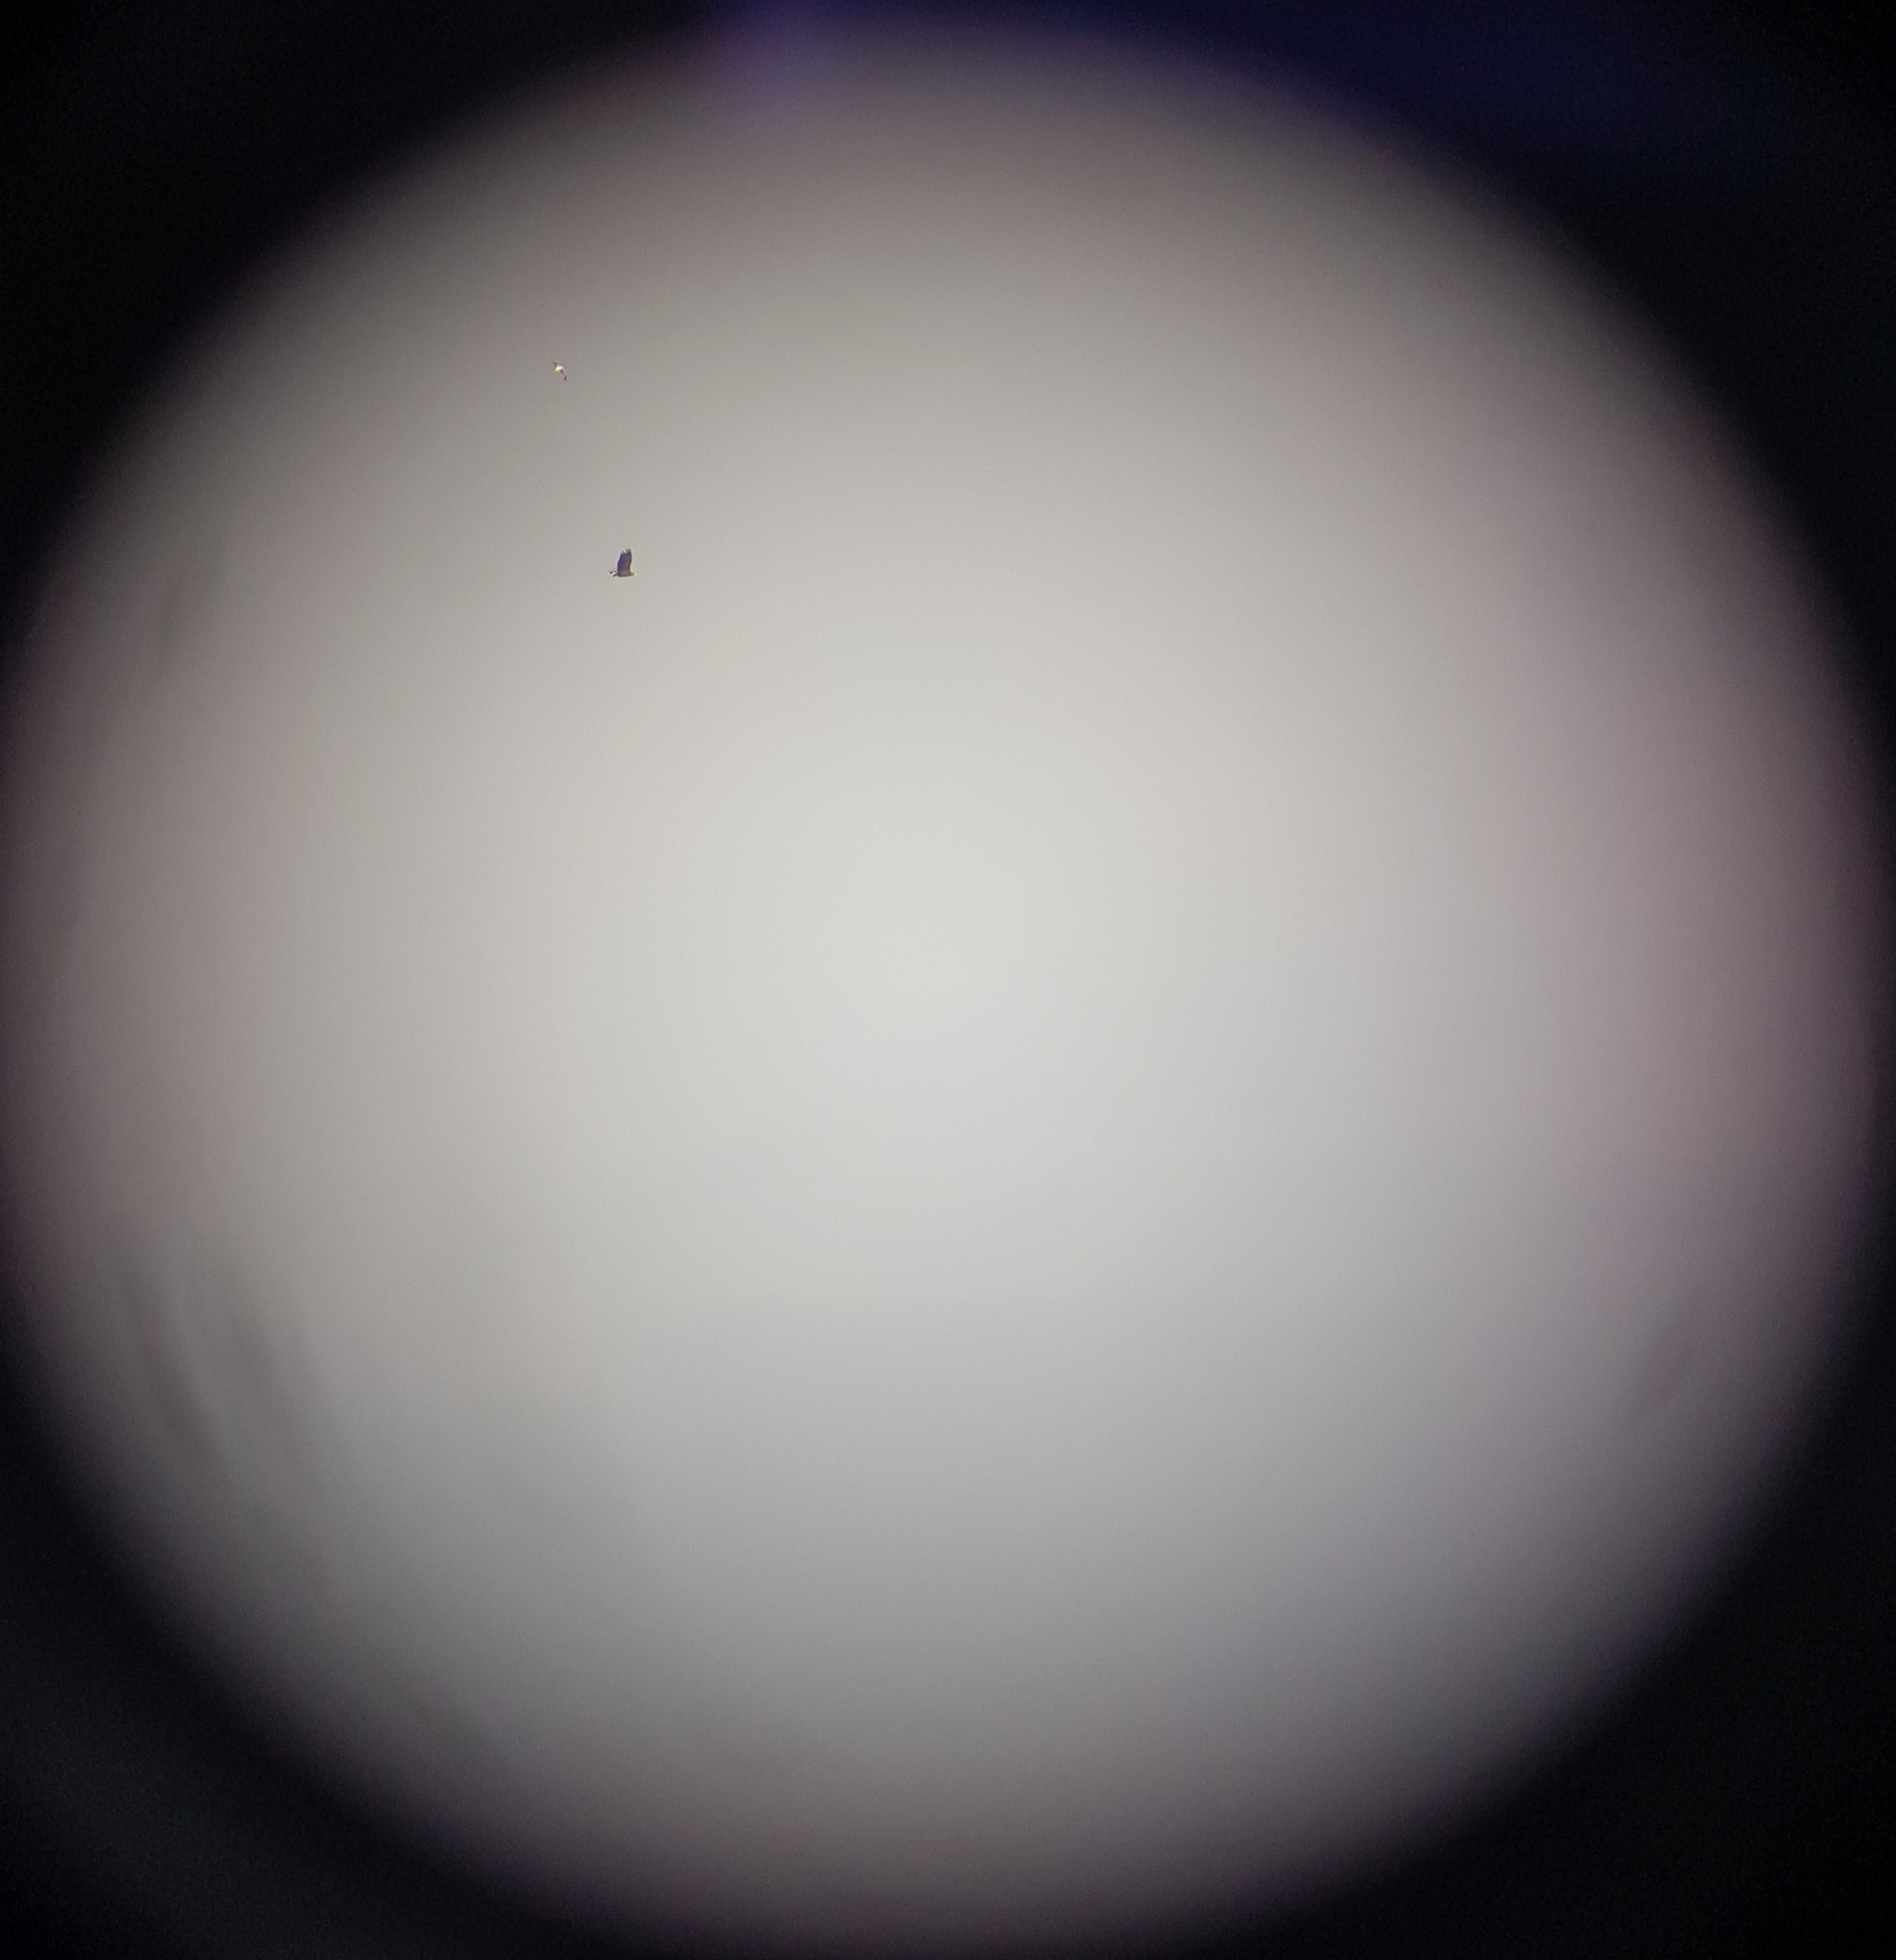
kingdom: Animalia
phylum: Chordata
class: Aves
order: Accipitriformes
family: Accipitridae
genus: Haliaeetus
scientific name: Haliaeetus albicilla
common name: Havørn
